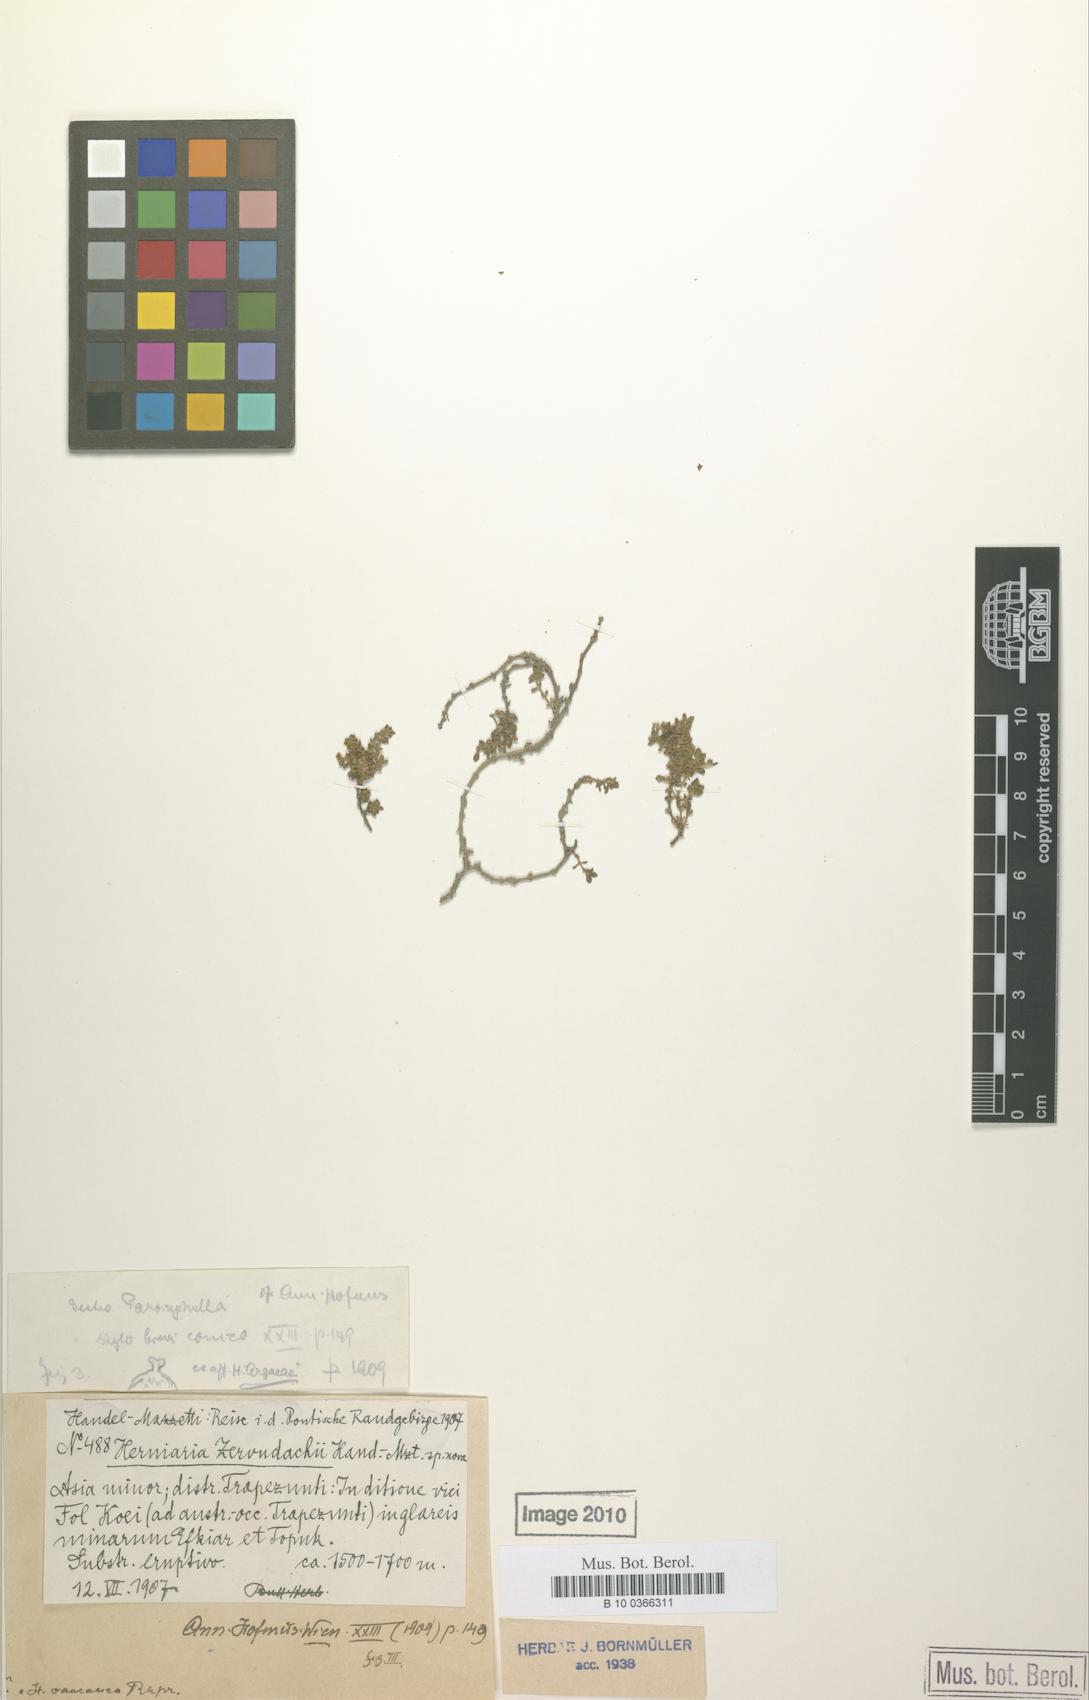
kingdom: Plantae
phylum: Tracheophyta
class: Magnoliopsida
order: Caryophyllales
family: Caryophyllaceae
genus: Herniaria
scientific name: Herniaria caucasica
